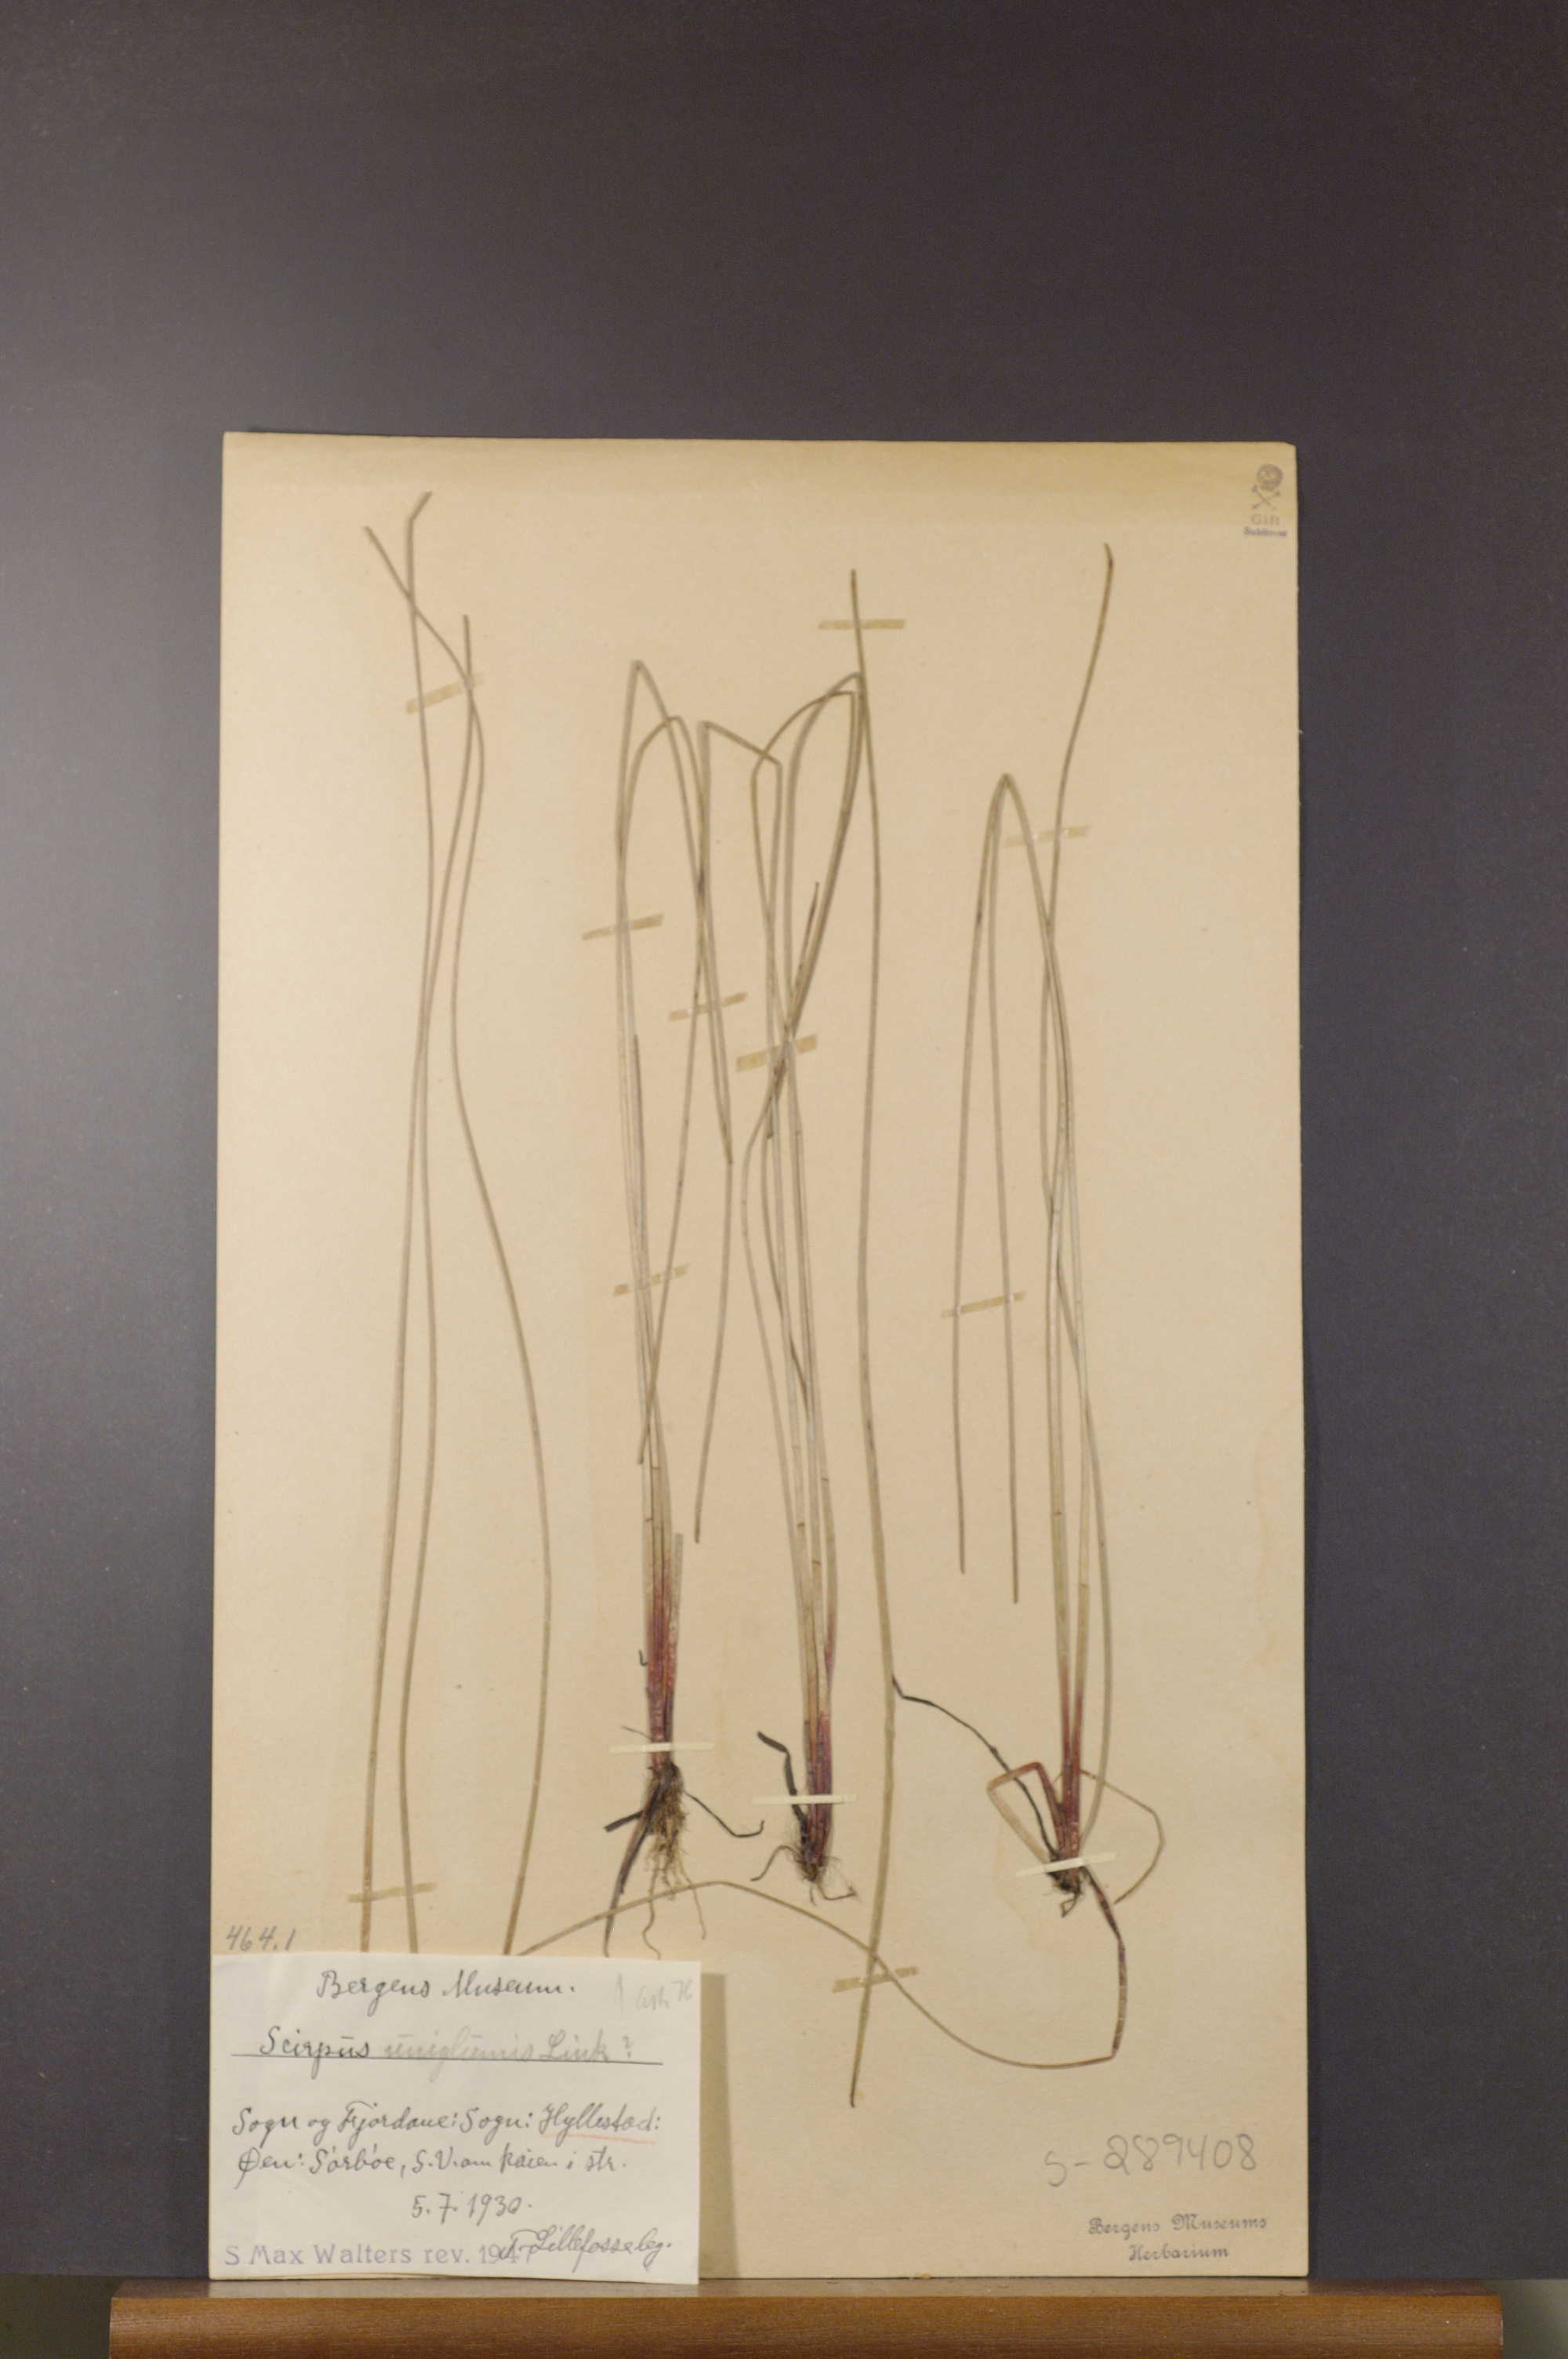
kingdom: Plantae
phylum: Tracheophyta
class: Liliopsida
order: Poales
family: Cyperaceae
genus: Eleocharis
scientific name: Eleocharis uniglumis
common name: Slender spike-rush
